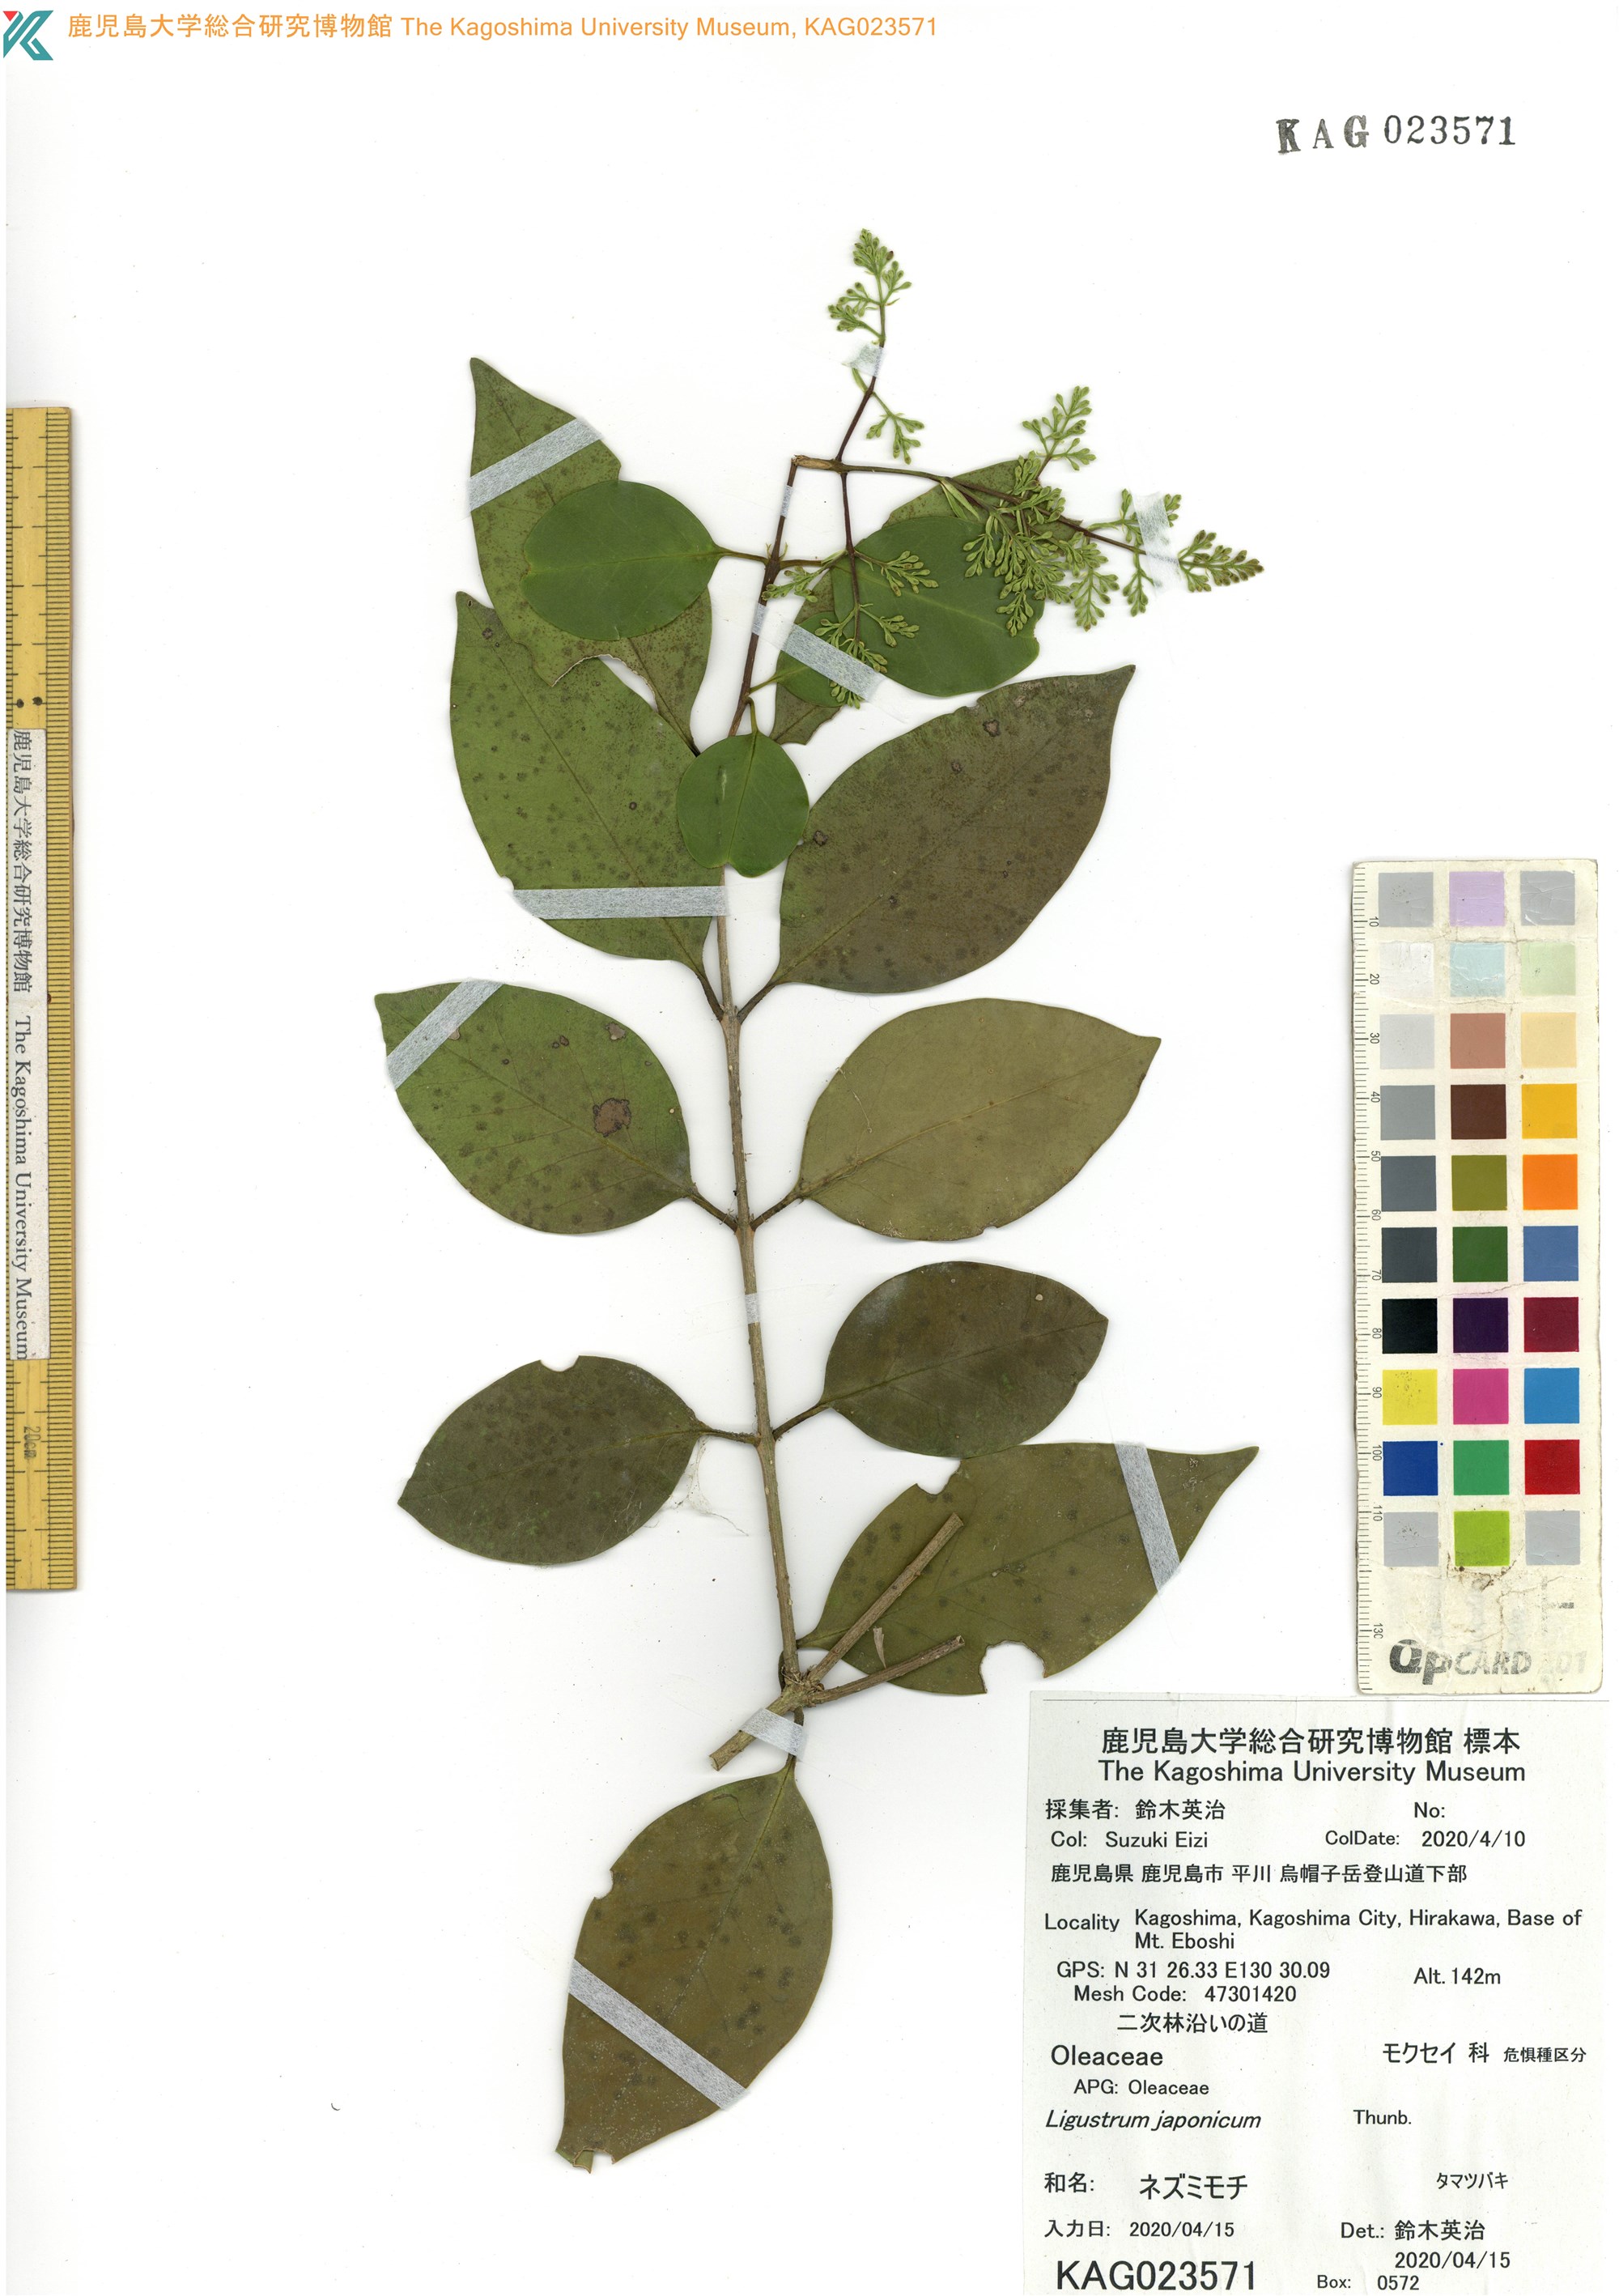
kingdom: Plantae
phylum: Tracheophyta
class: Magnoliopsida
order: Lamiales
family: Oleaceae
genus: Ligustrum
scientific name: Ligustrum japonicum
